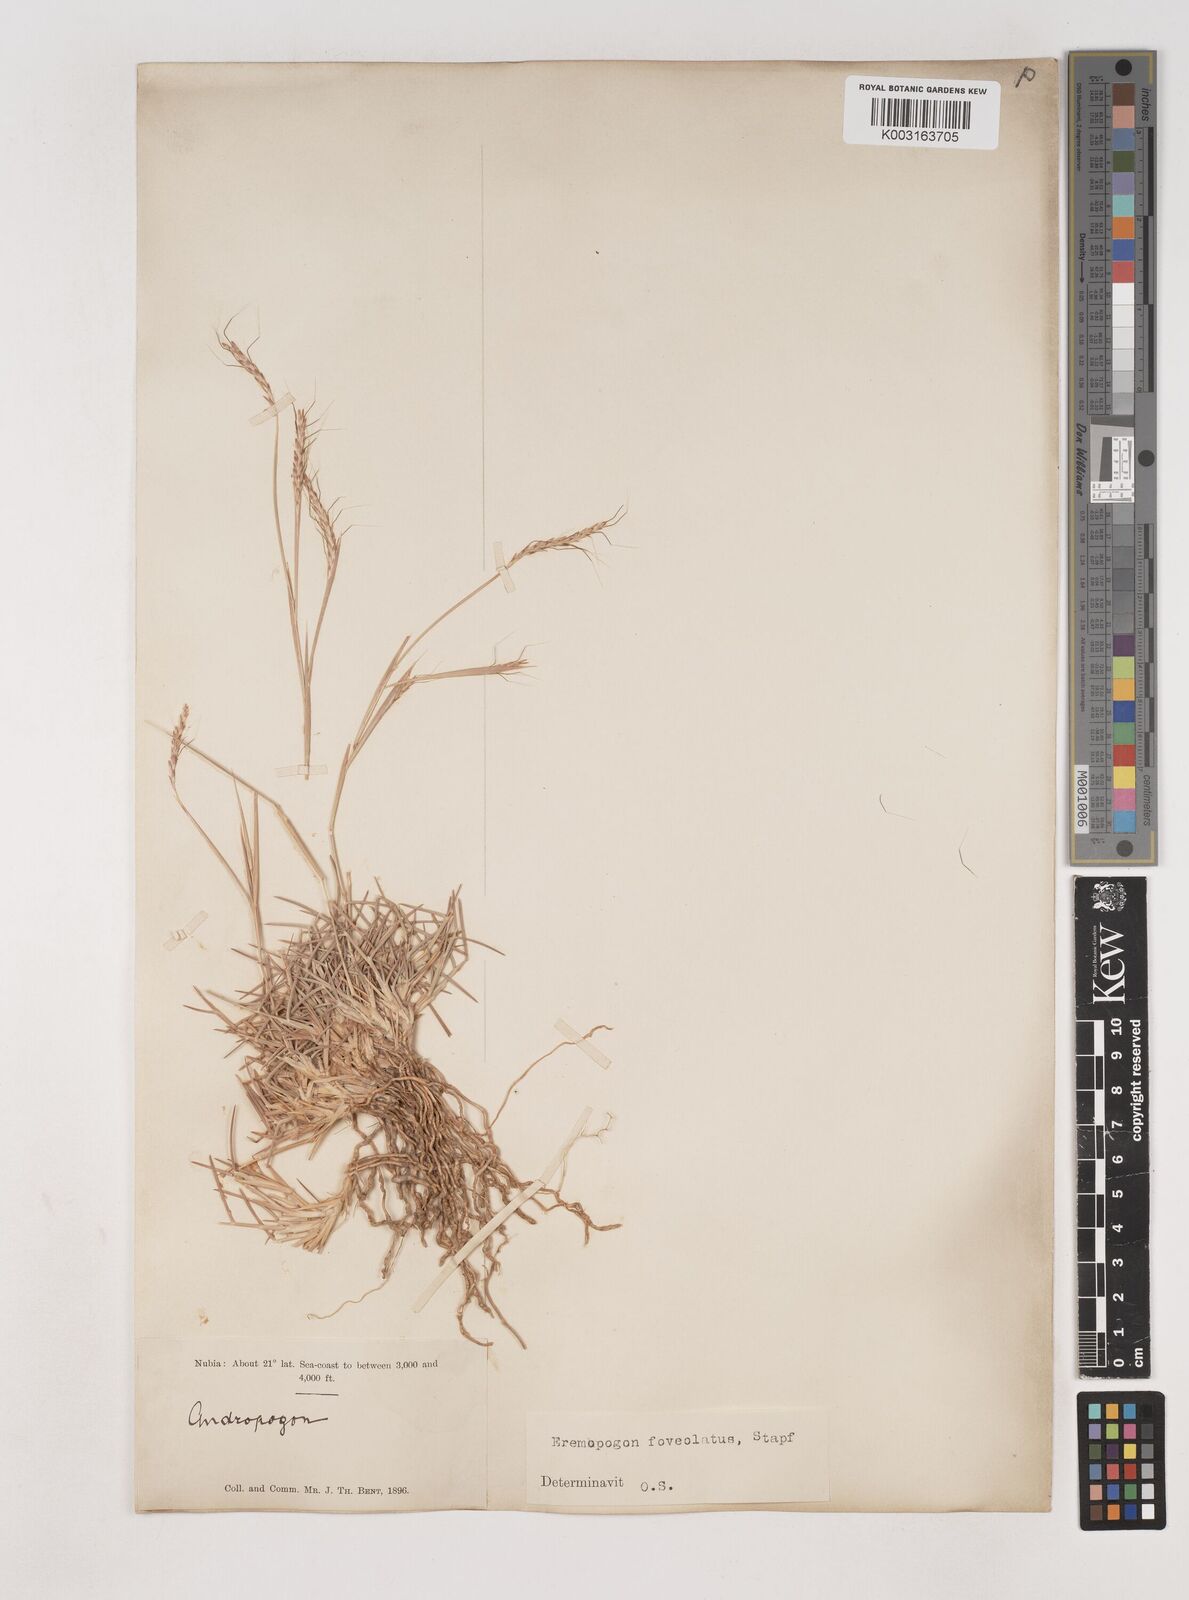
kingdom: Plantae
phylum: Tracheophyta
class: Liliopsida
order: Poales
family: Poaceae
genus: Dichanthium
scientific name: Dichanthium foveolatum
